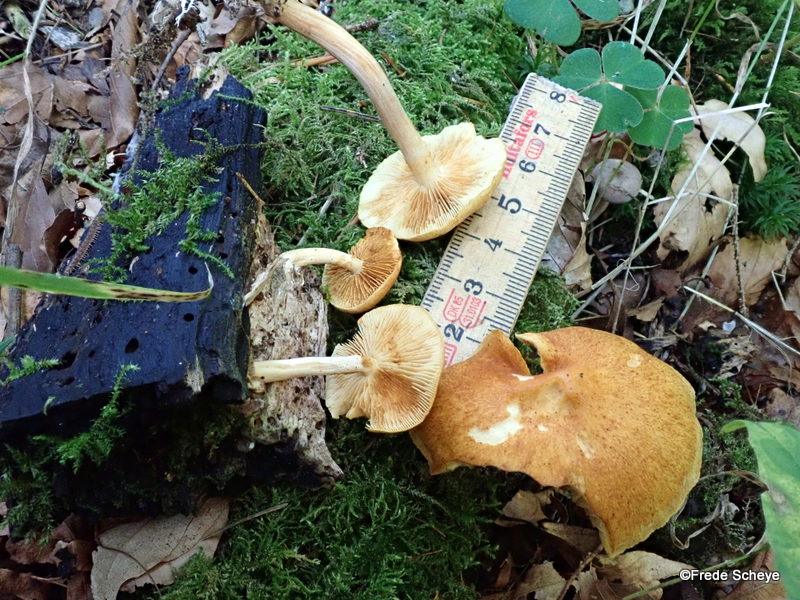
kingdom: Fungi
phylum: Basidiomycota
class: Agaricomycetes
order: Agaricales
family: Hymenogastraceae
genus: Gymnopilus
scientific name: Gymnopilus penetrans
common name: plettet flammehat
